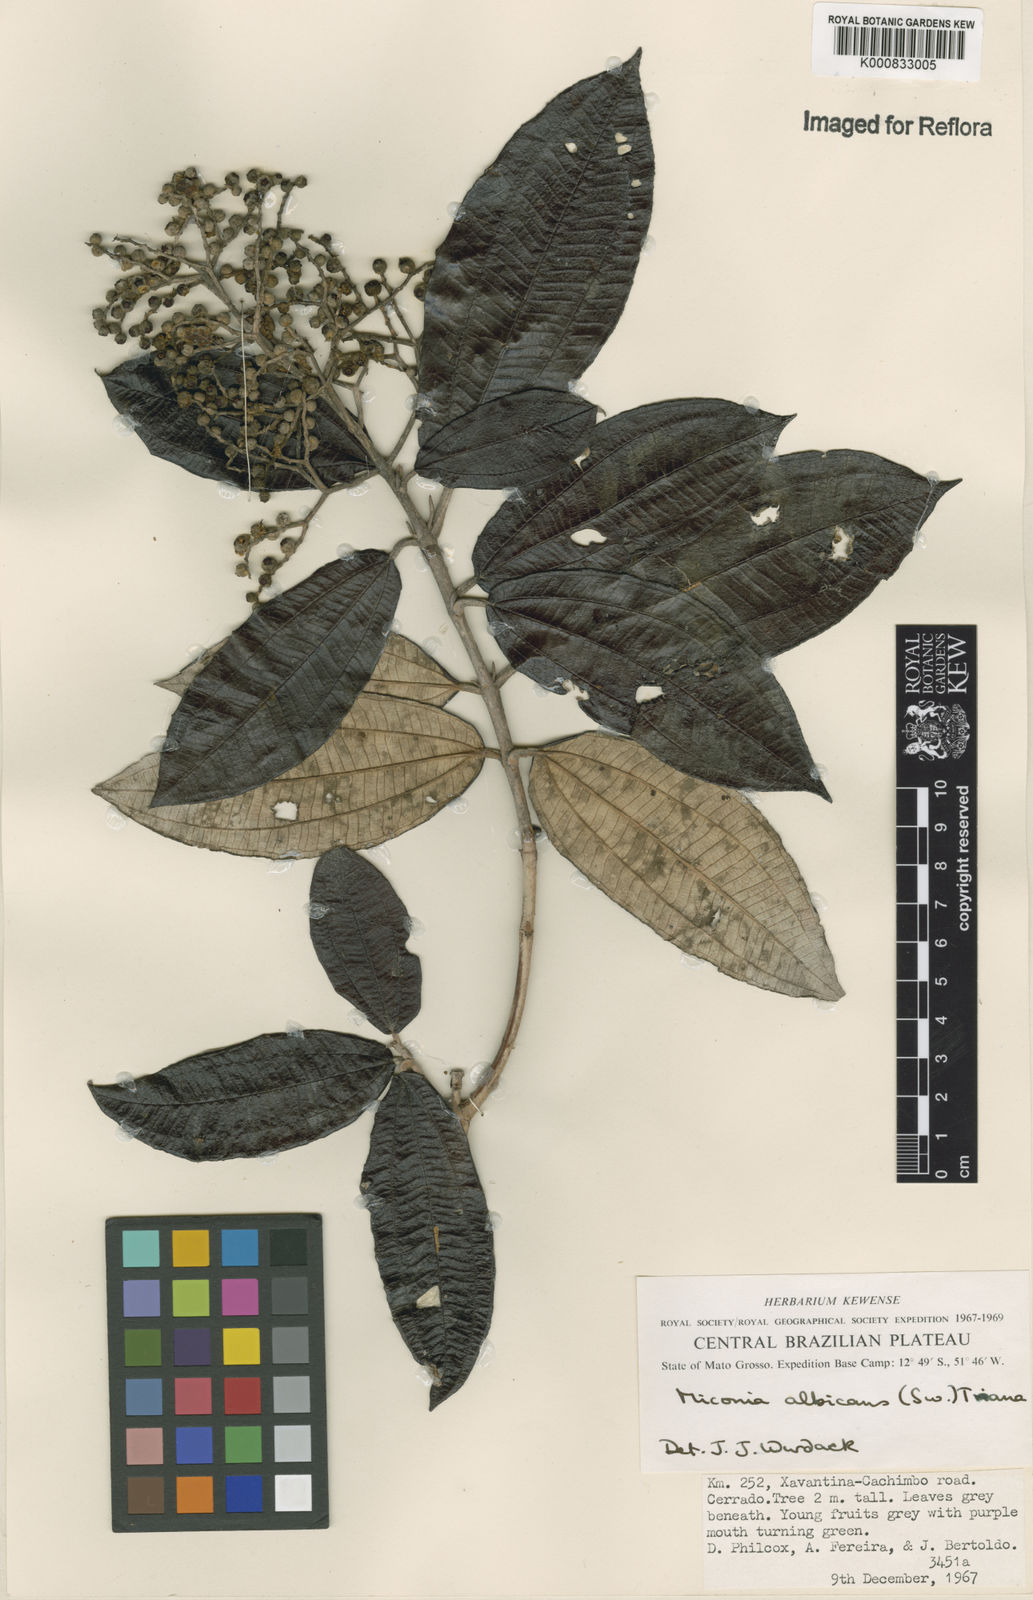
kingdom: Plantae
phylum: Tracheophyta
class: Magnoliopsida
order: Myrtales
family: Melastomataceae
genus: Miconia
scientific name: Miconia albicans
